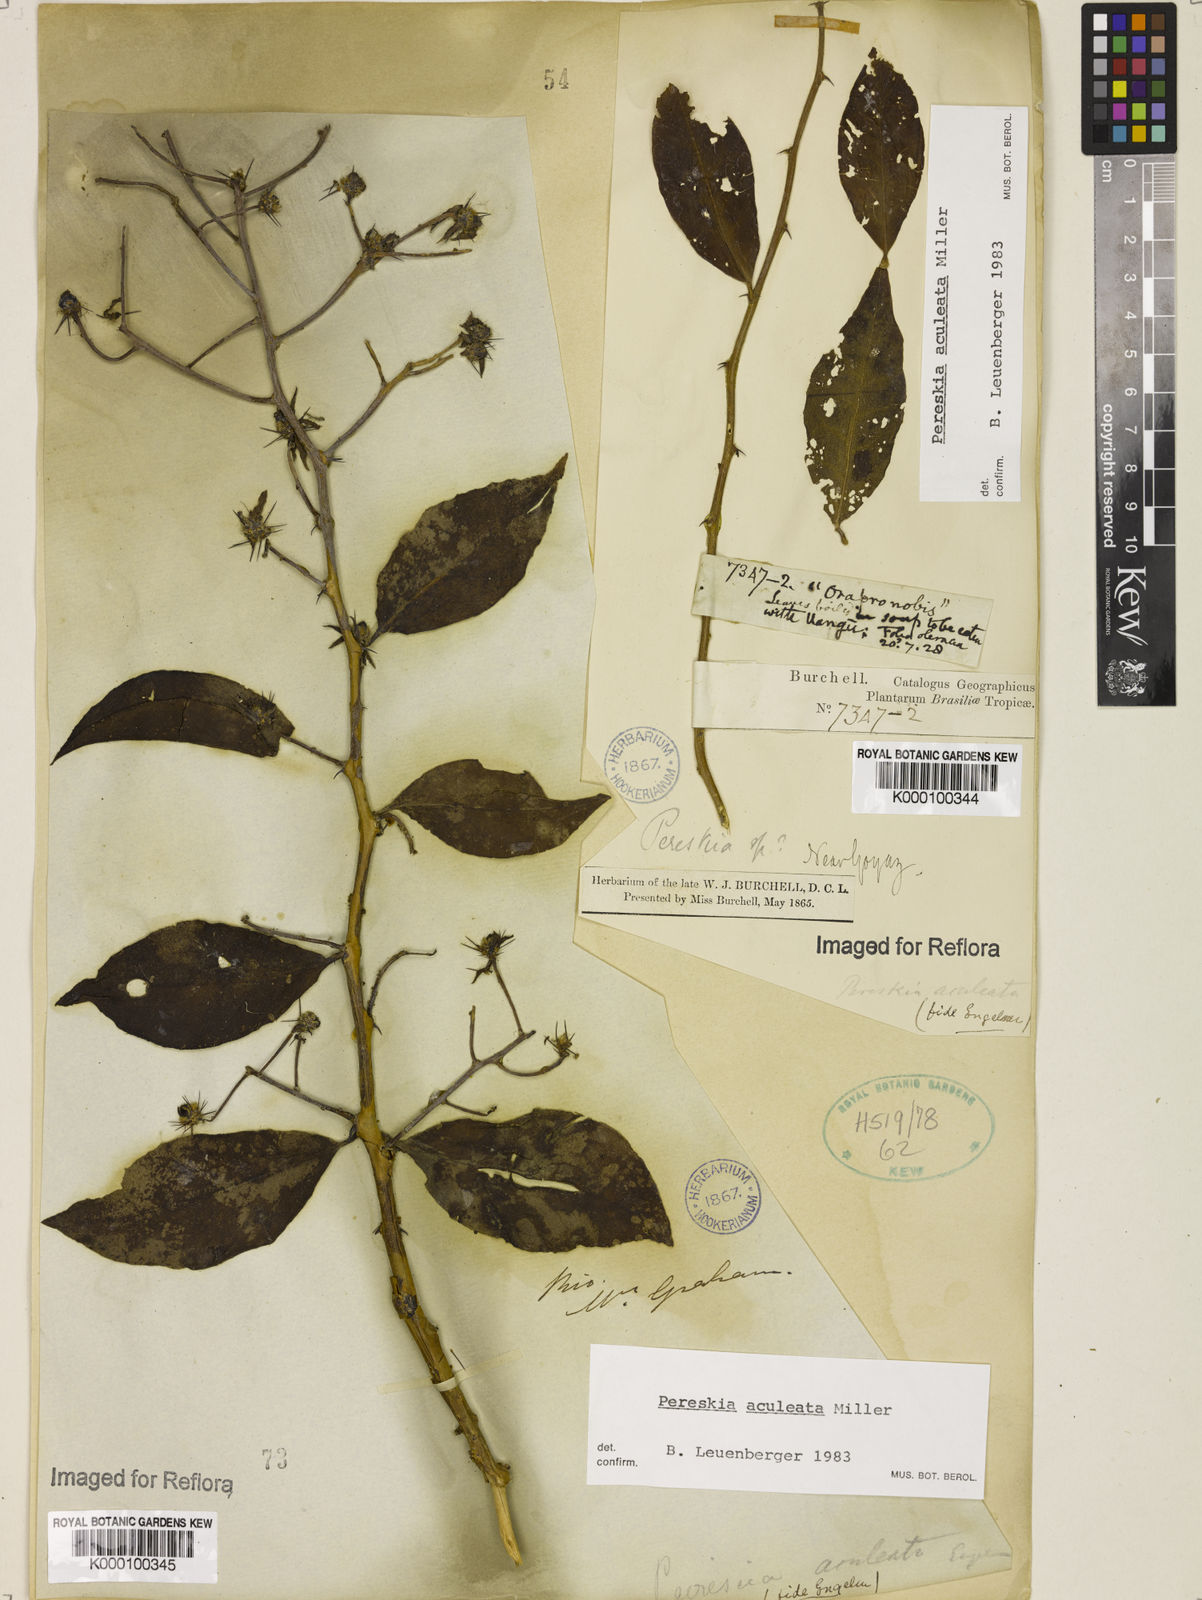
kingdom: Plantae
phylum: Tracheophyta
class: Magnoliopsida
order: Caryophyllales
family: Cactaceae
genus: Pereskia
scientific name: Pereskia aculeata
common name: Barbados gooseberry
